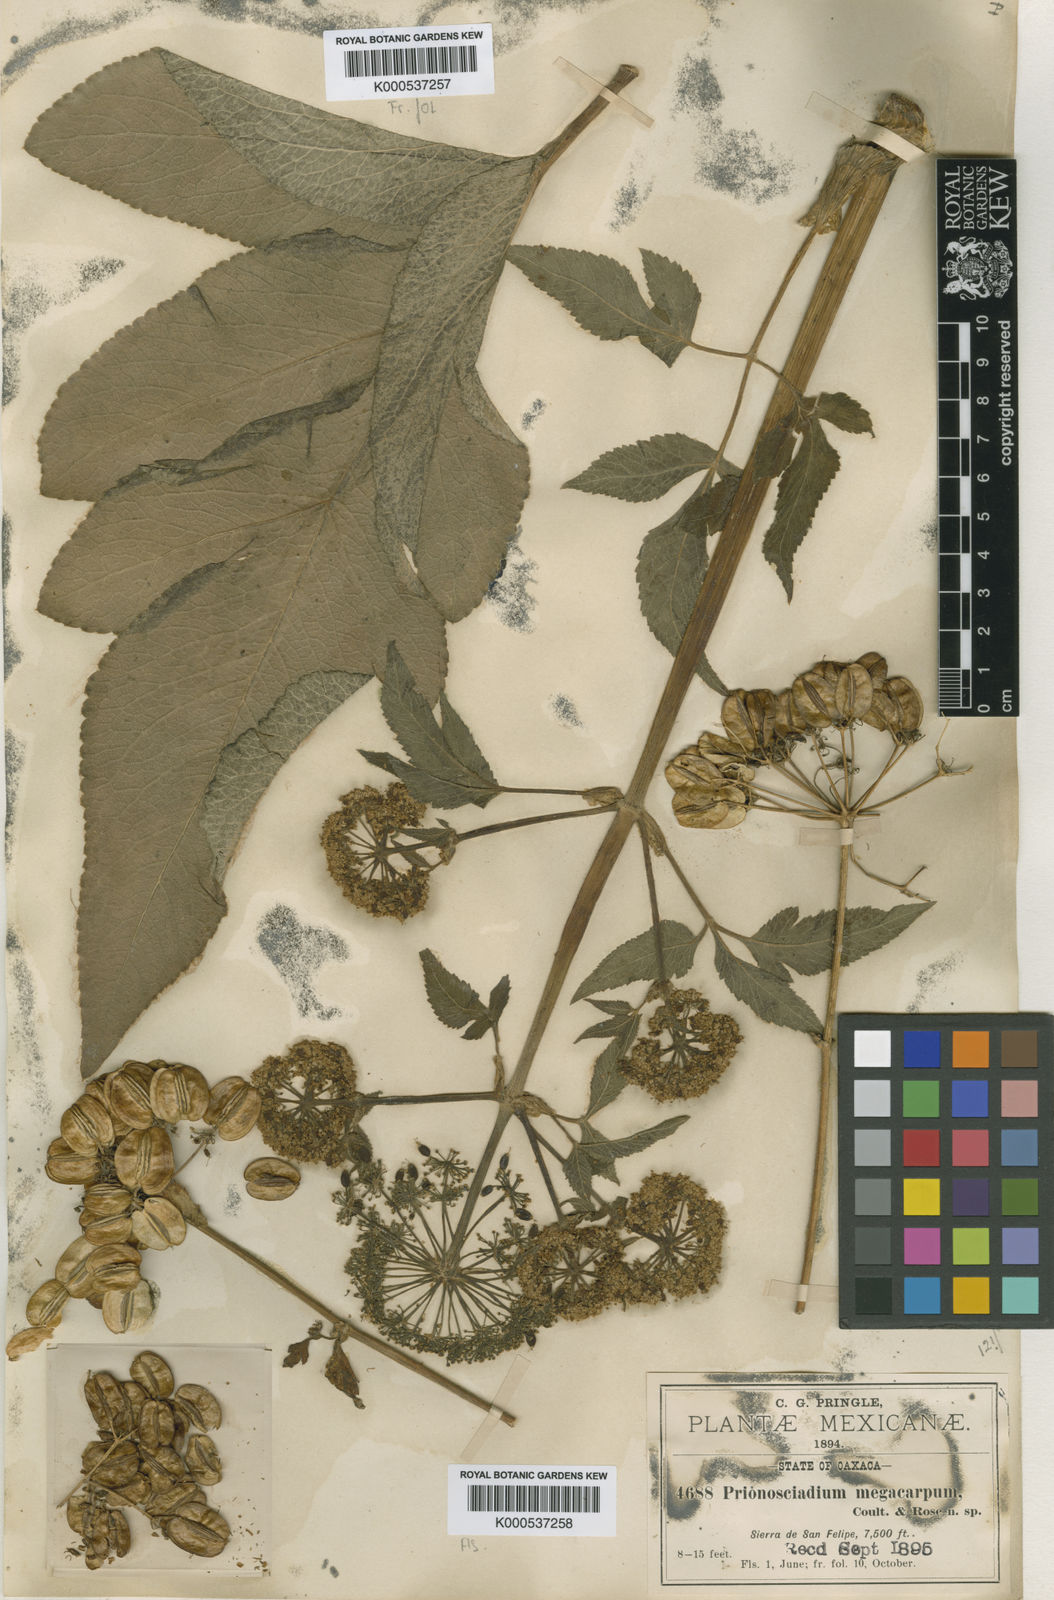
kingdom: Plantae
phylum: Tracheophyta
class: Magnoliopsida
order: Apiales
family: Apiaceae
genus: Prionosciadium
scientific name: Prionosciadium megacarpum
